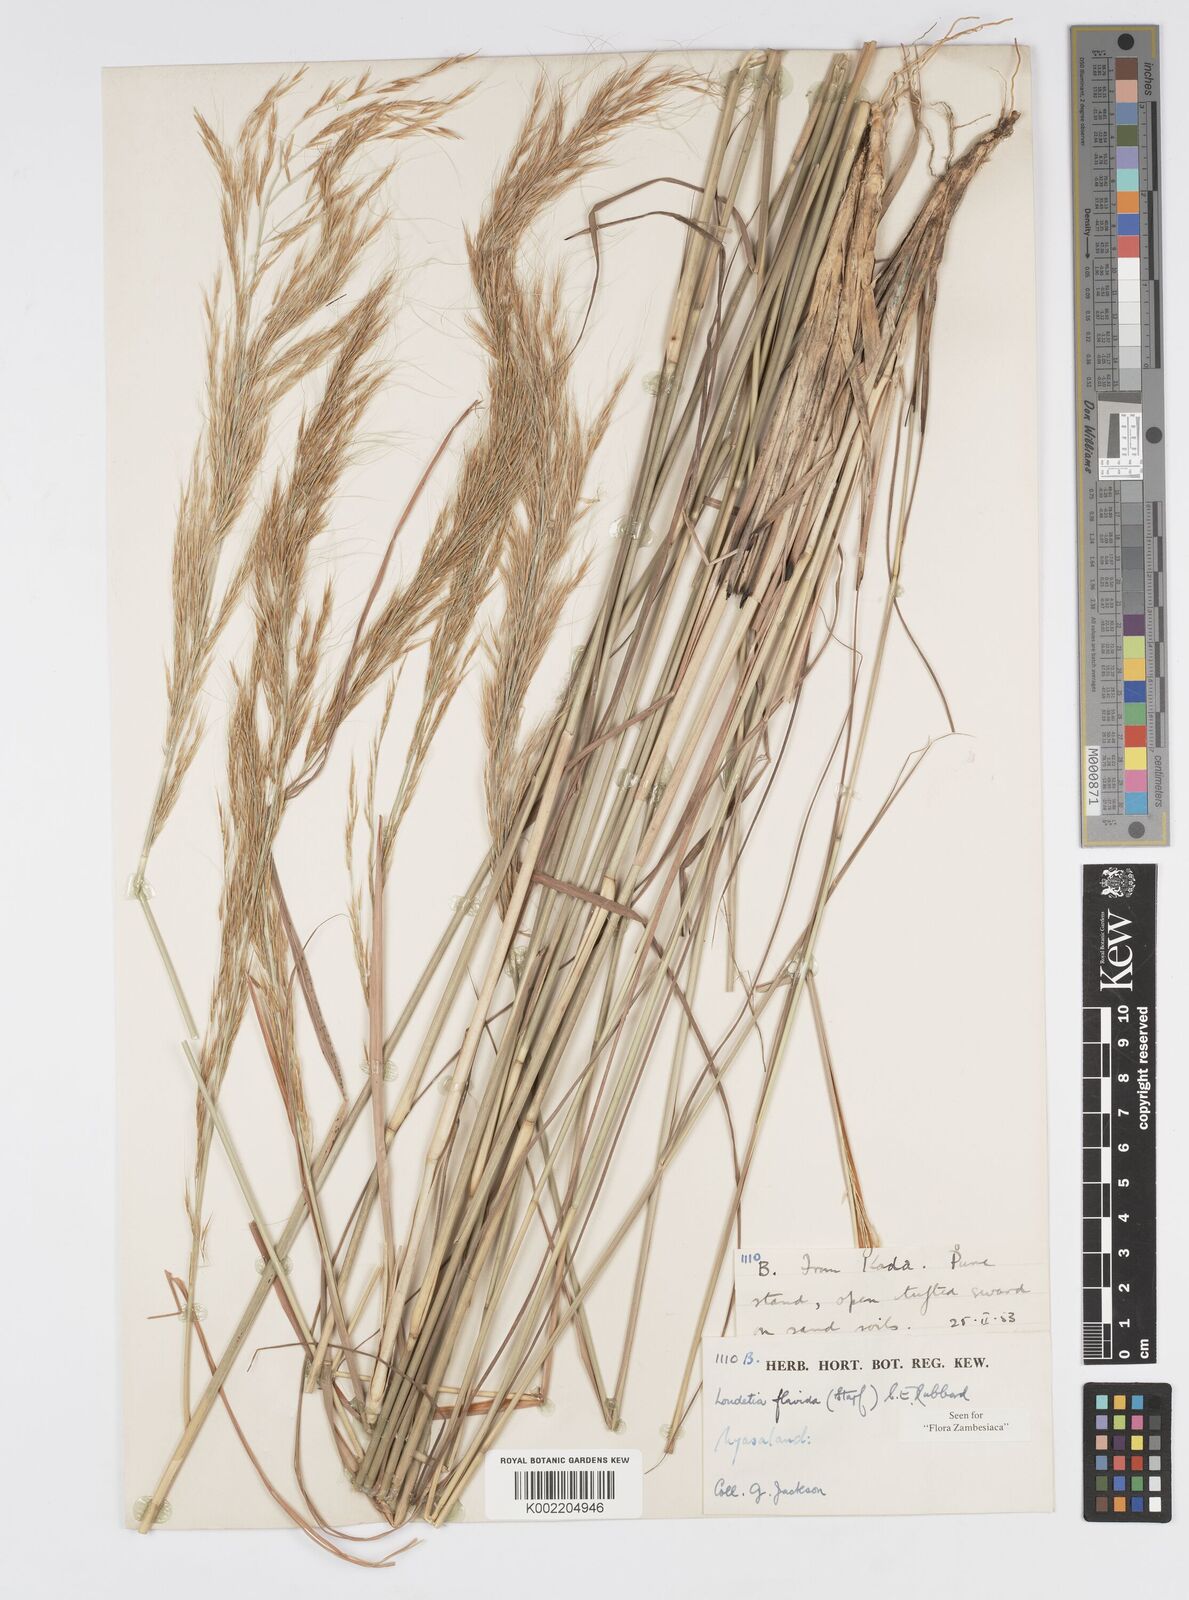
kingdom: Plantae
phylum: Tracheophyta
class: Liliopsida
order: Poales
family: Poaceae
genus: Loudetia
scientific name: Loudetia flavida
